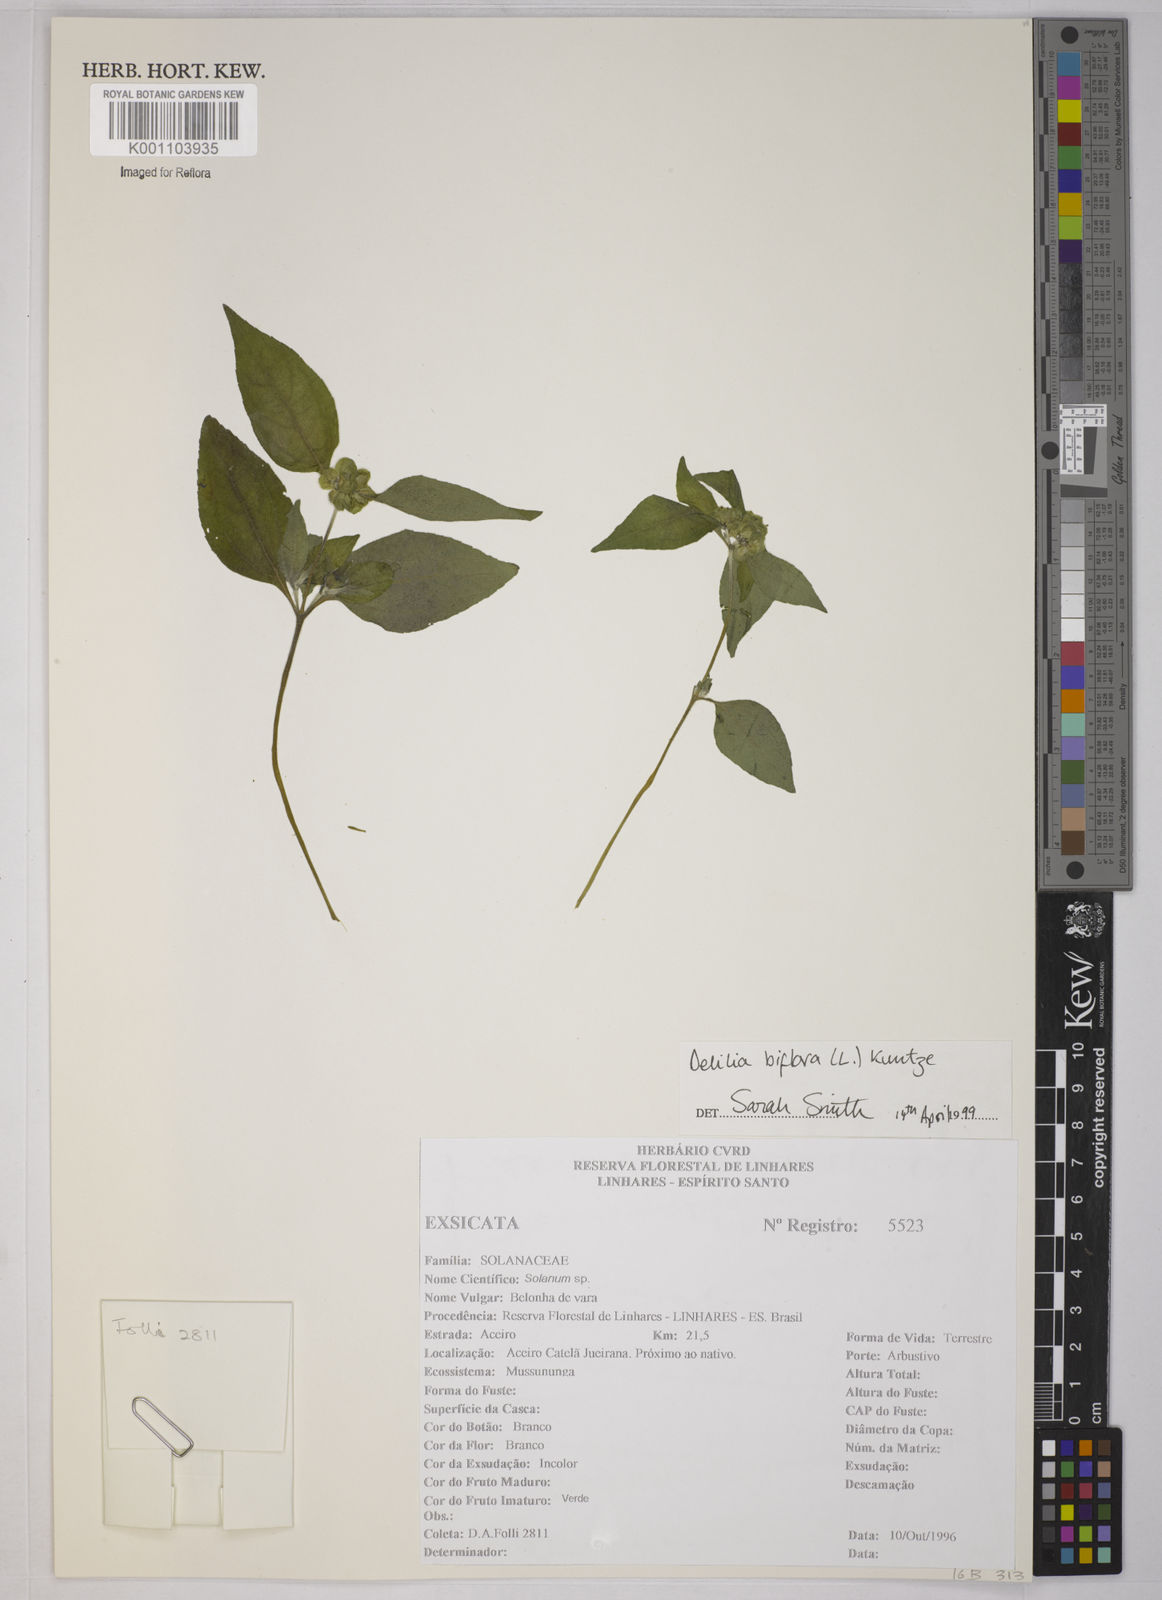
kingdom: Plantae
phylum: Tracheophyta
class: Magnoliopsida
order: Asterales
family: Asteraceae
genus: Delilia
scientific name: Delilia biflora
